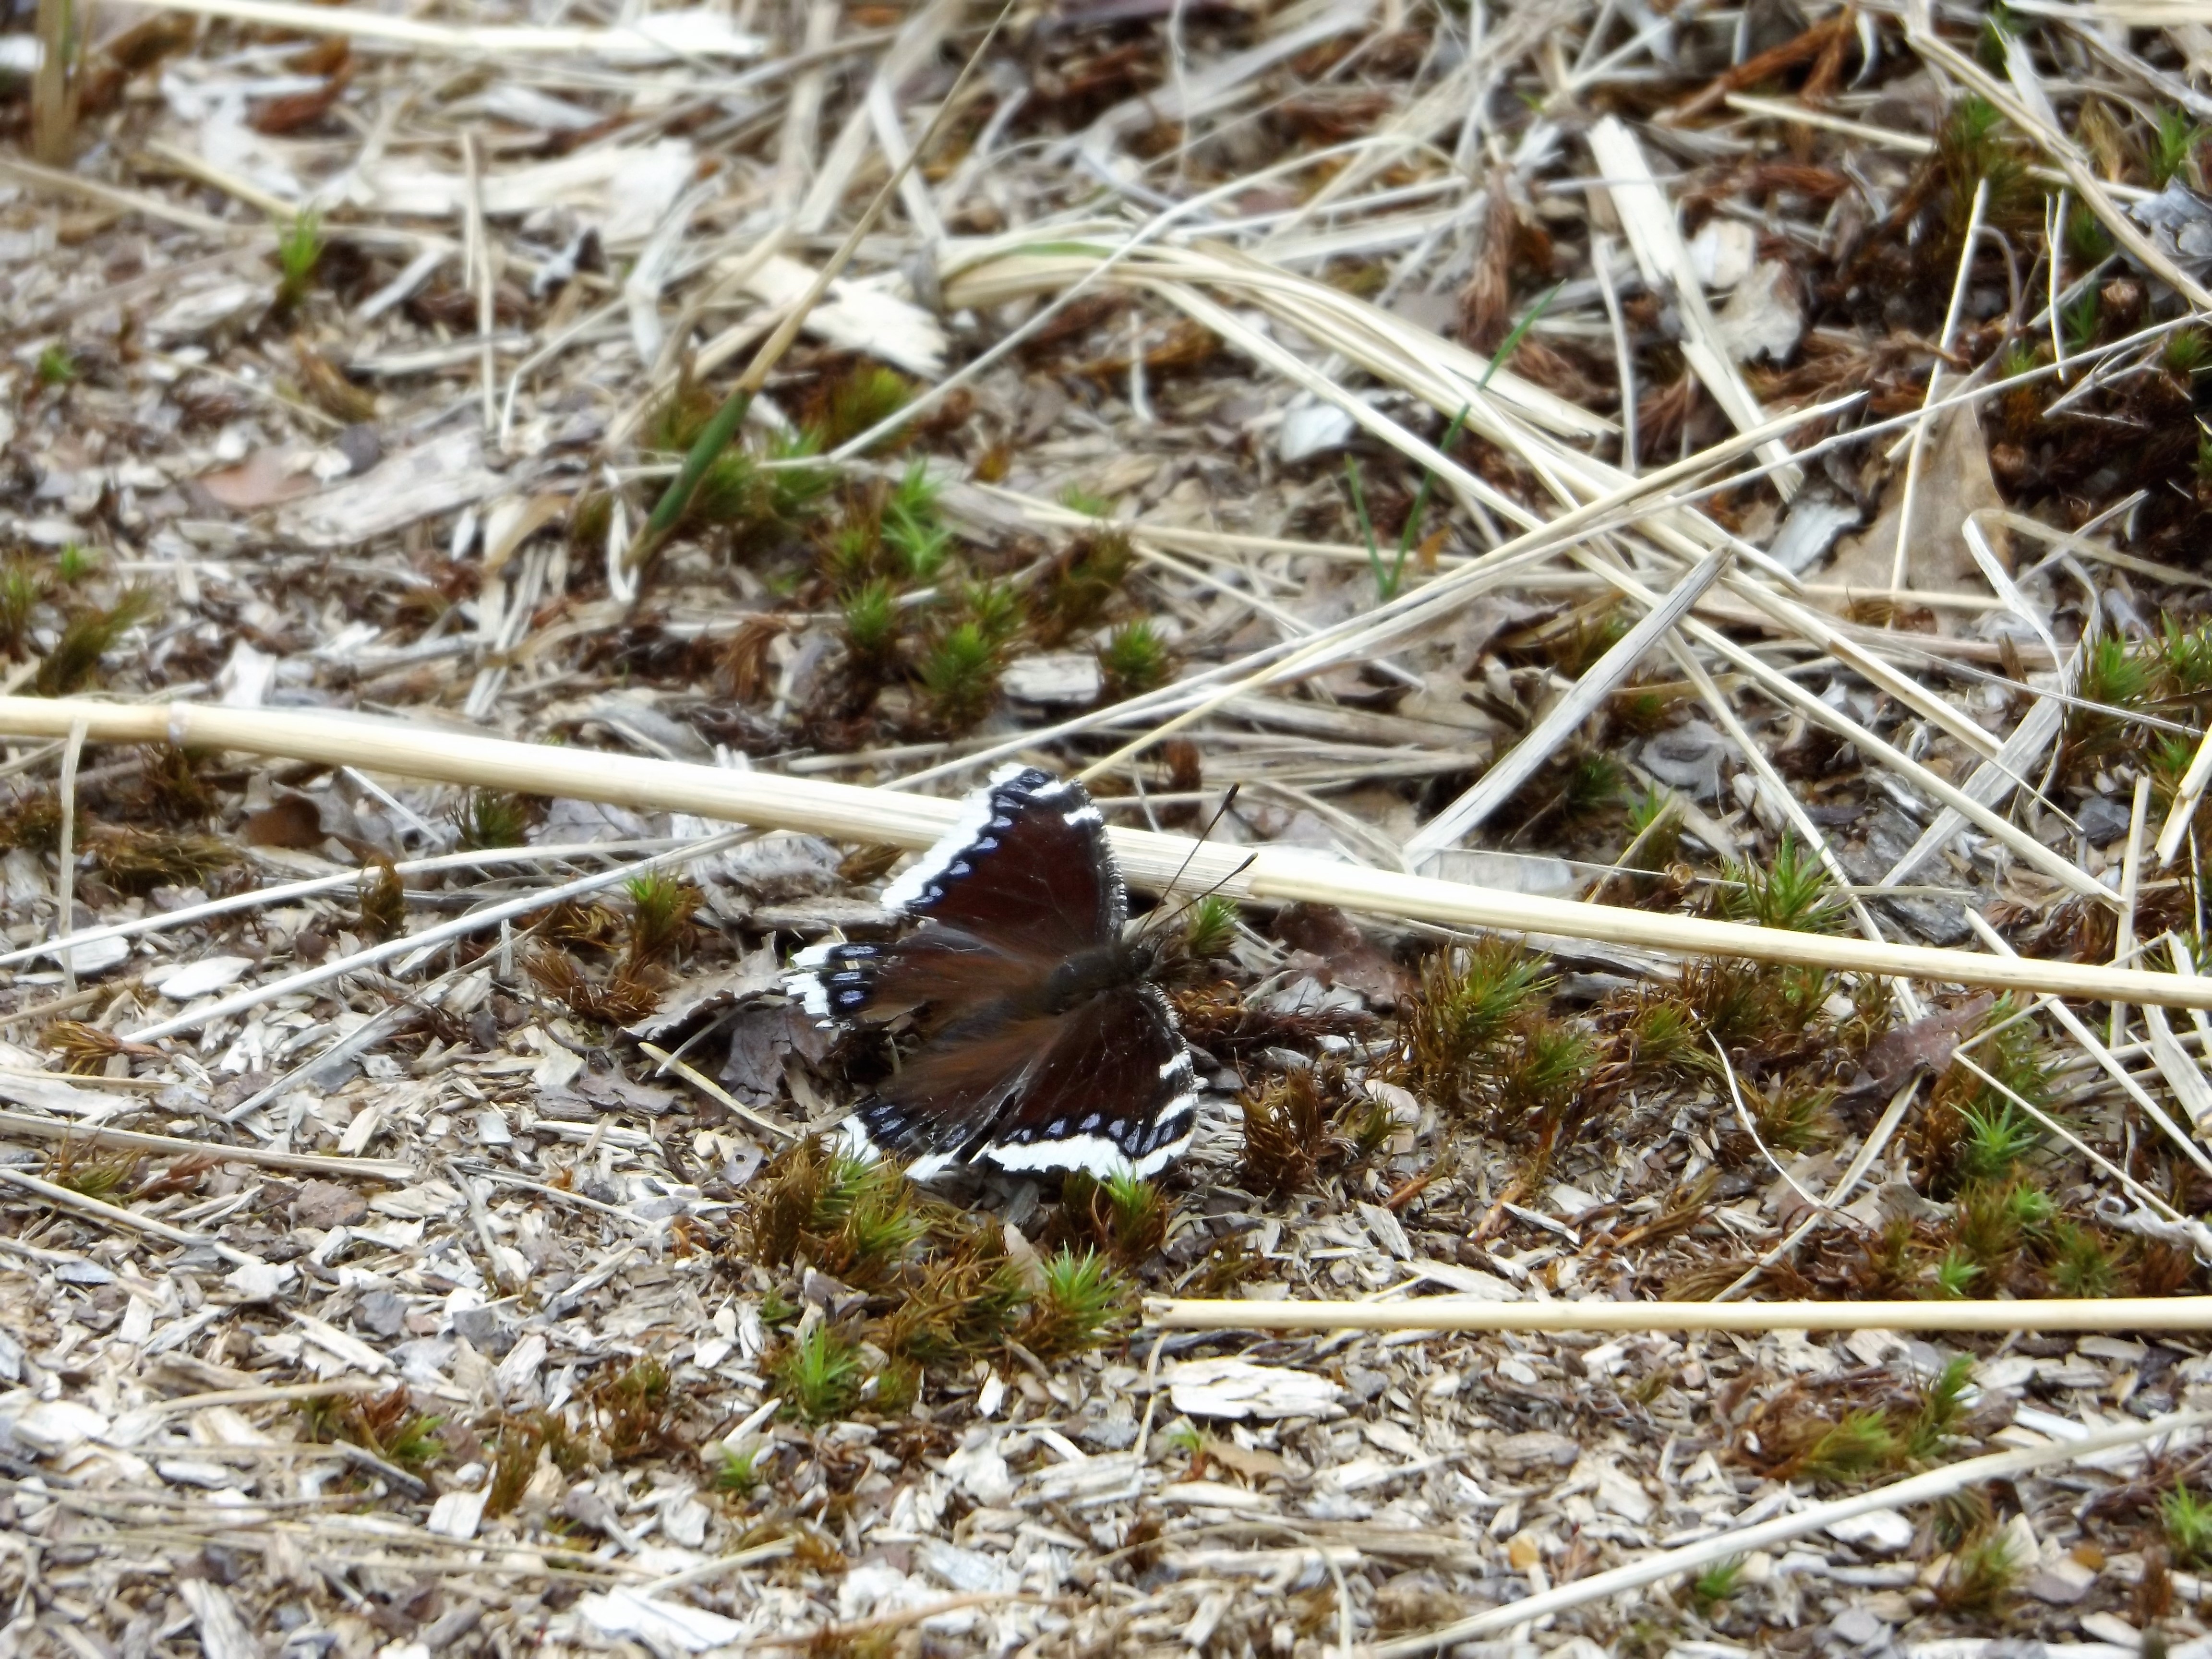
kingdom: Animalia
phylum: Arthropoda
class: Insecta
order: Lepidoptera
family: Nymphalidae
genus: Nymphalis
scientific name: Nymphalis antiopa
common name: Camberwell beauty
